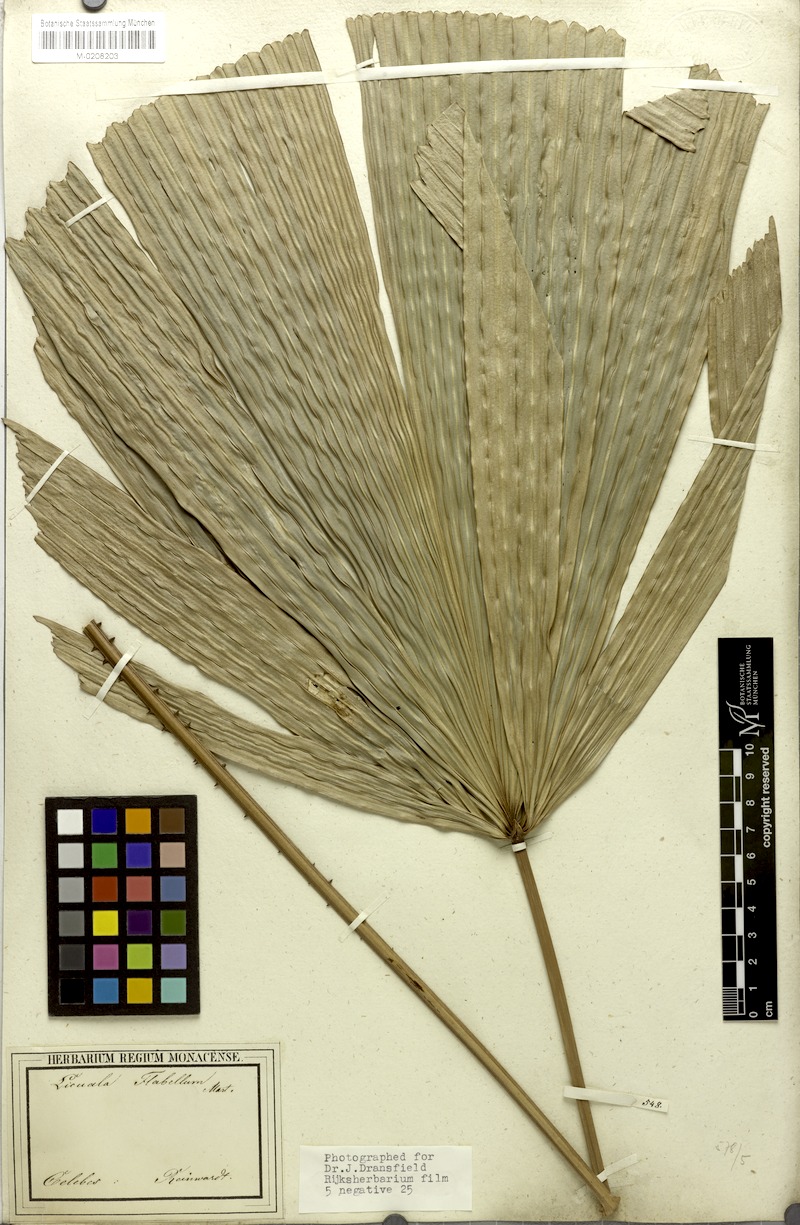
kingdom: Plantae
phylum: Tracheophyta
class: Liliopsida
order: Arecales
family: Arecaceae
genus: Lanonia
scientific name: Lanonia gracilis
